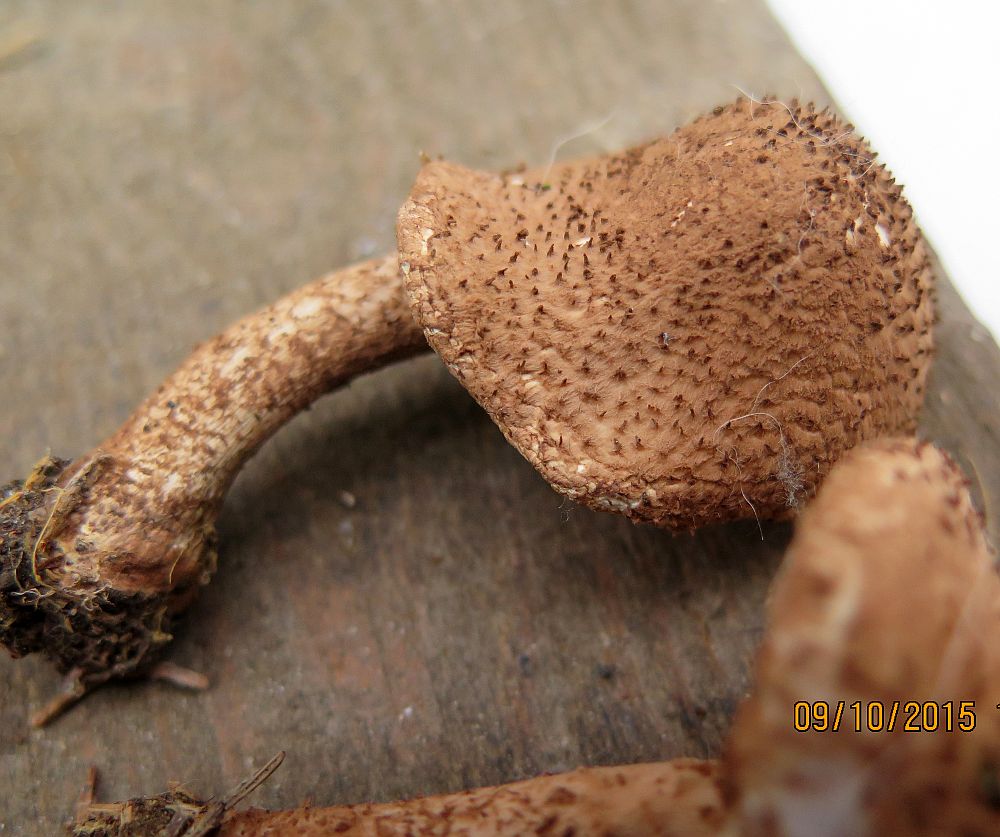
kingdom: Fungi
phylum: Basidiomycota
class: Agaricomycetes
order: Agaricales
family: Agaricaceae
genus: Echinoderma
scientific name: Echinoderma echinaceum
